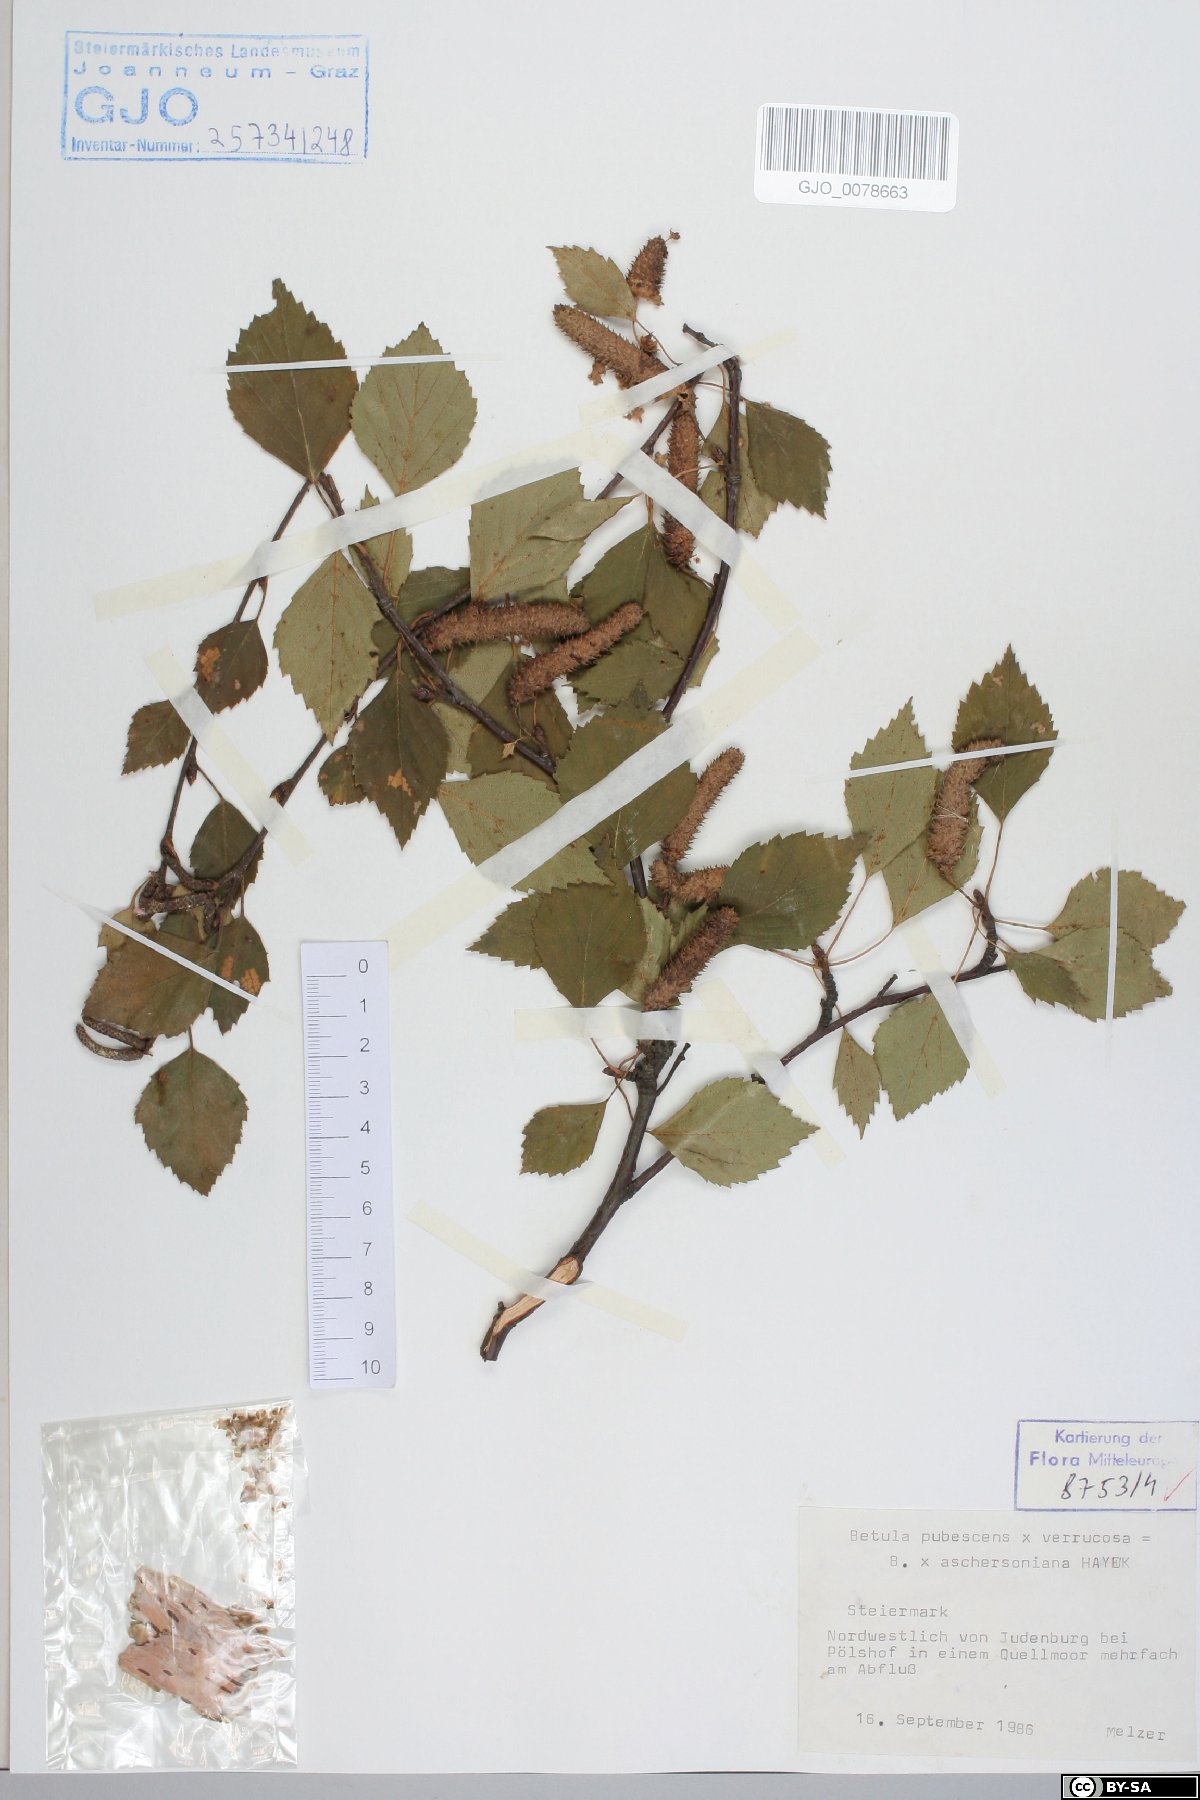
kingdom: Plantae
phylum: Tracheophyta
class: Magnoliopsida
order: Fagales
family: Betulaceae
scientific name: Betulaceae
